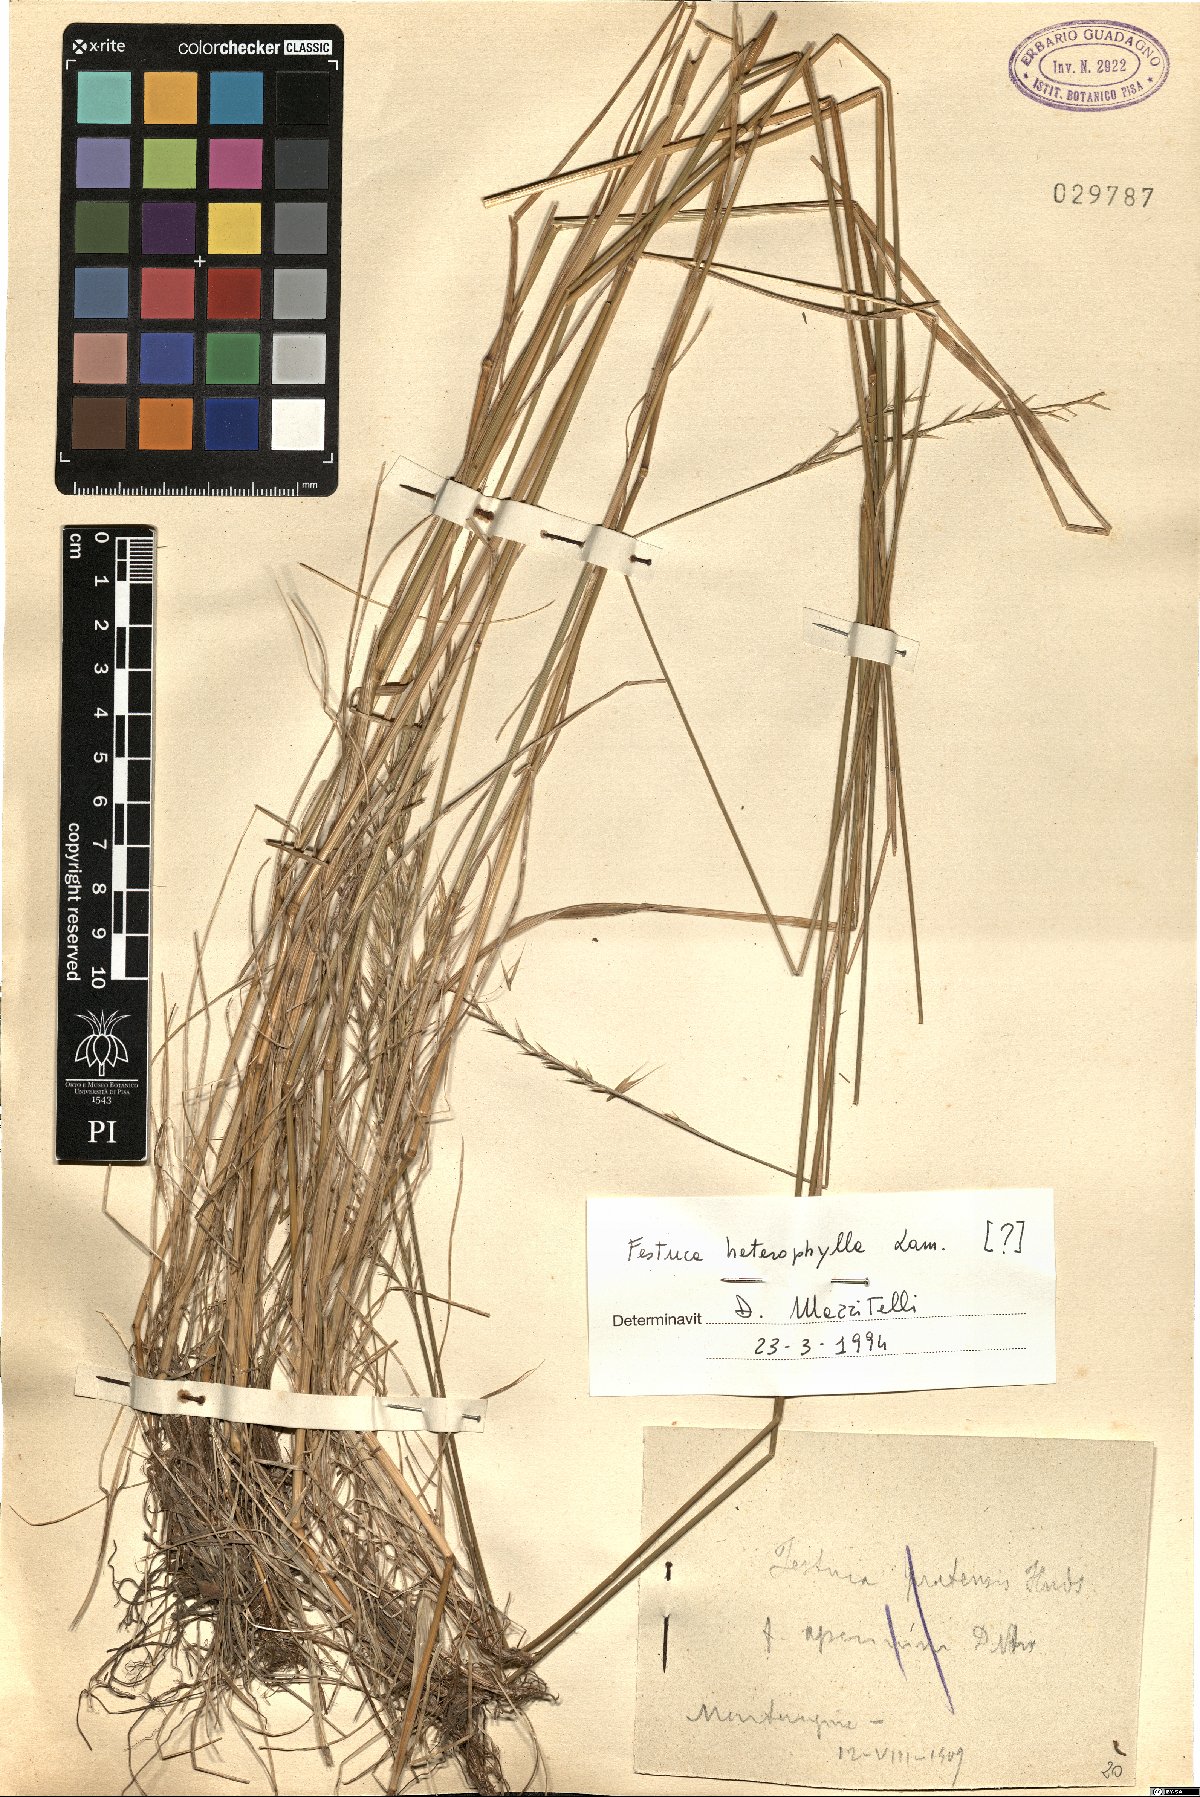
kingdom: Plantae
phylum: Tracheophyta
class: Liliopsida
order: Poales
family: Poaceae
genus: Festuca
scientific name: Festuca heterophylla
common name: Various-leaved fescue
